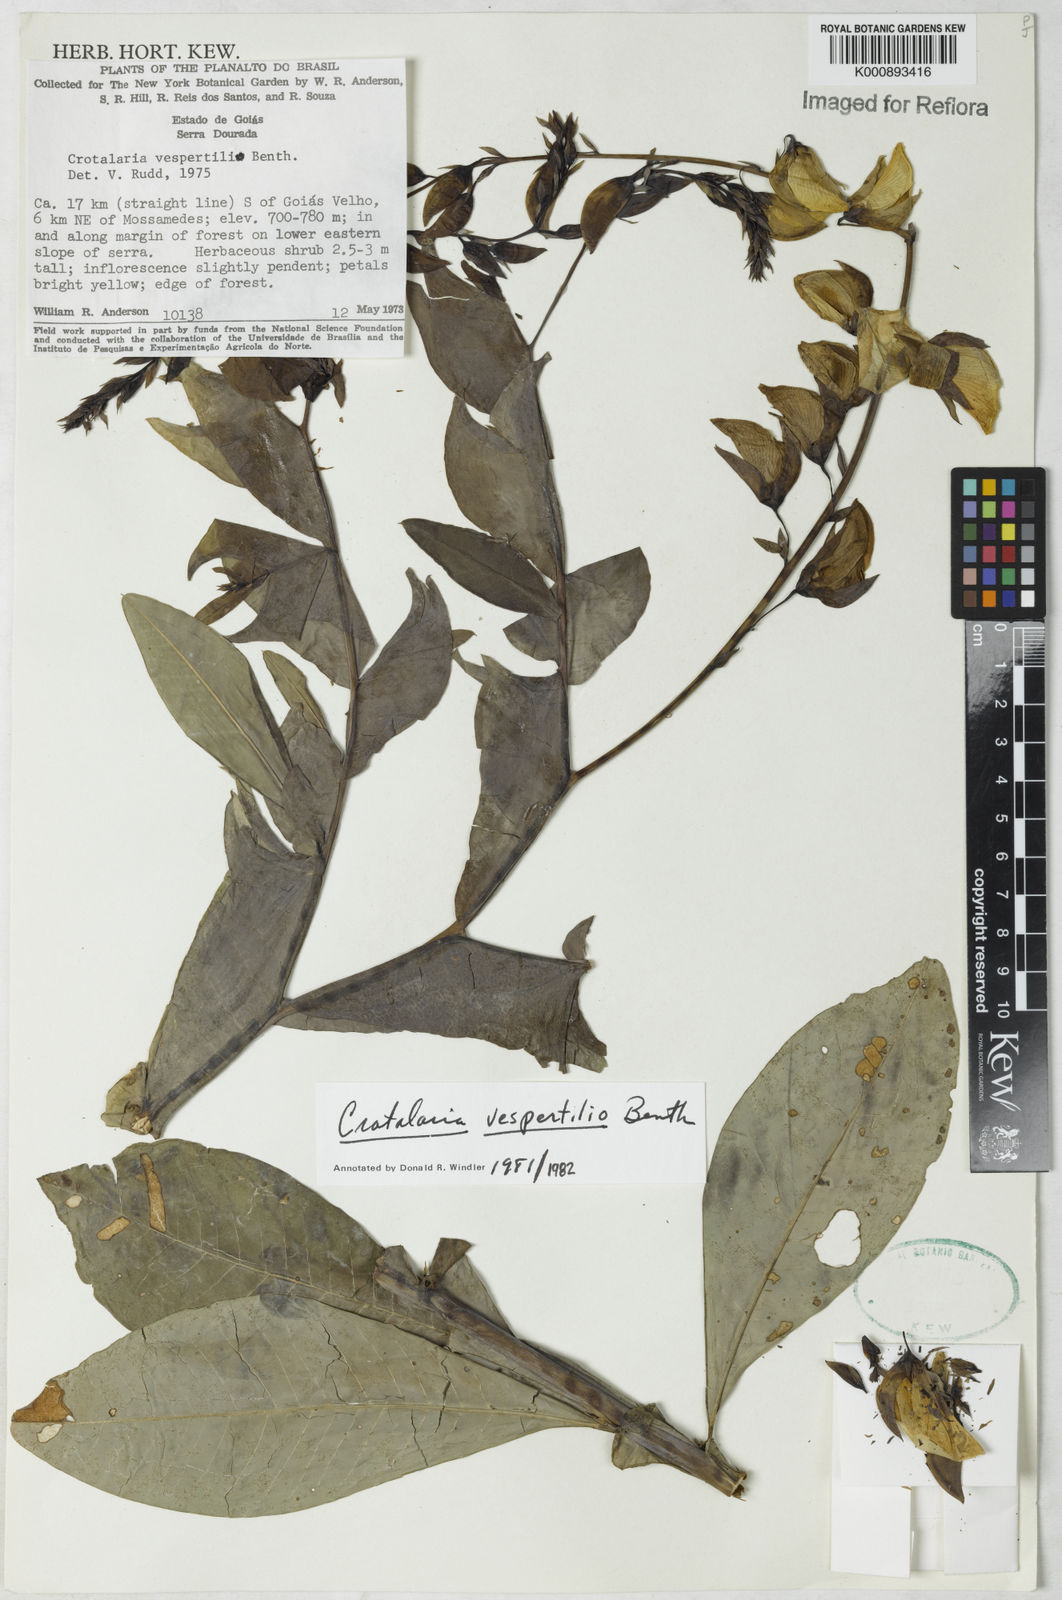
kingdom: Plantae
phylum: Tracheophyta
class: Magnoliopsida
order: Fabales
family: Fabaceae
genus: Crotalaria
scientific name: Crotalaria paulina
